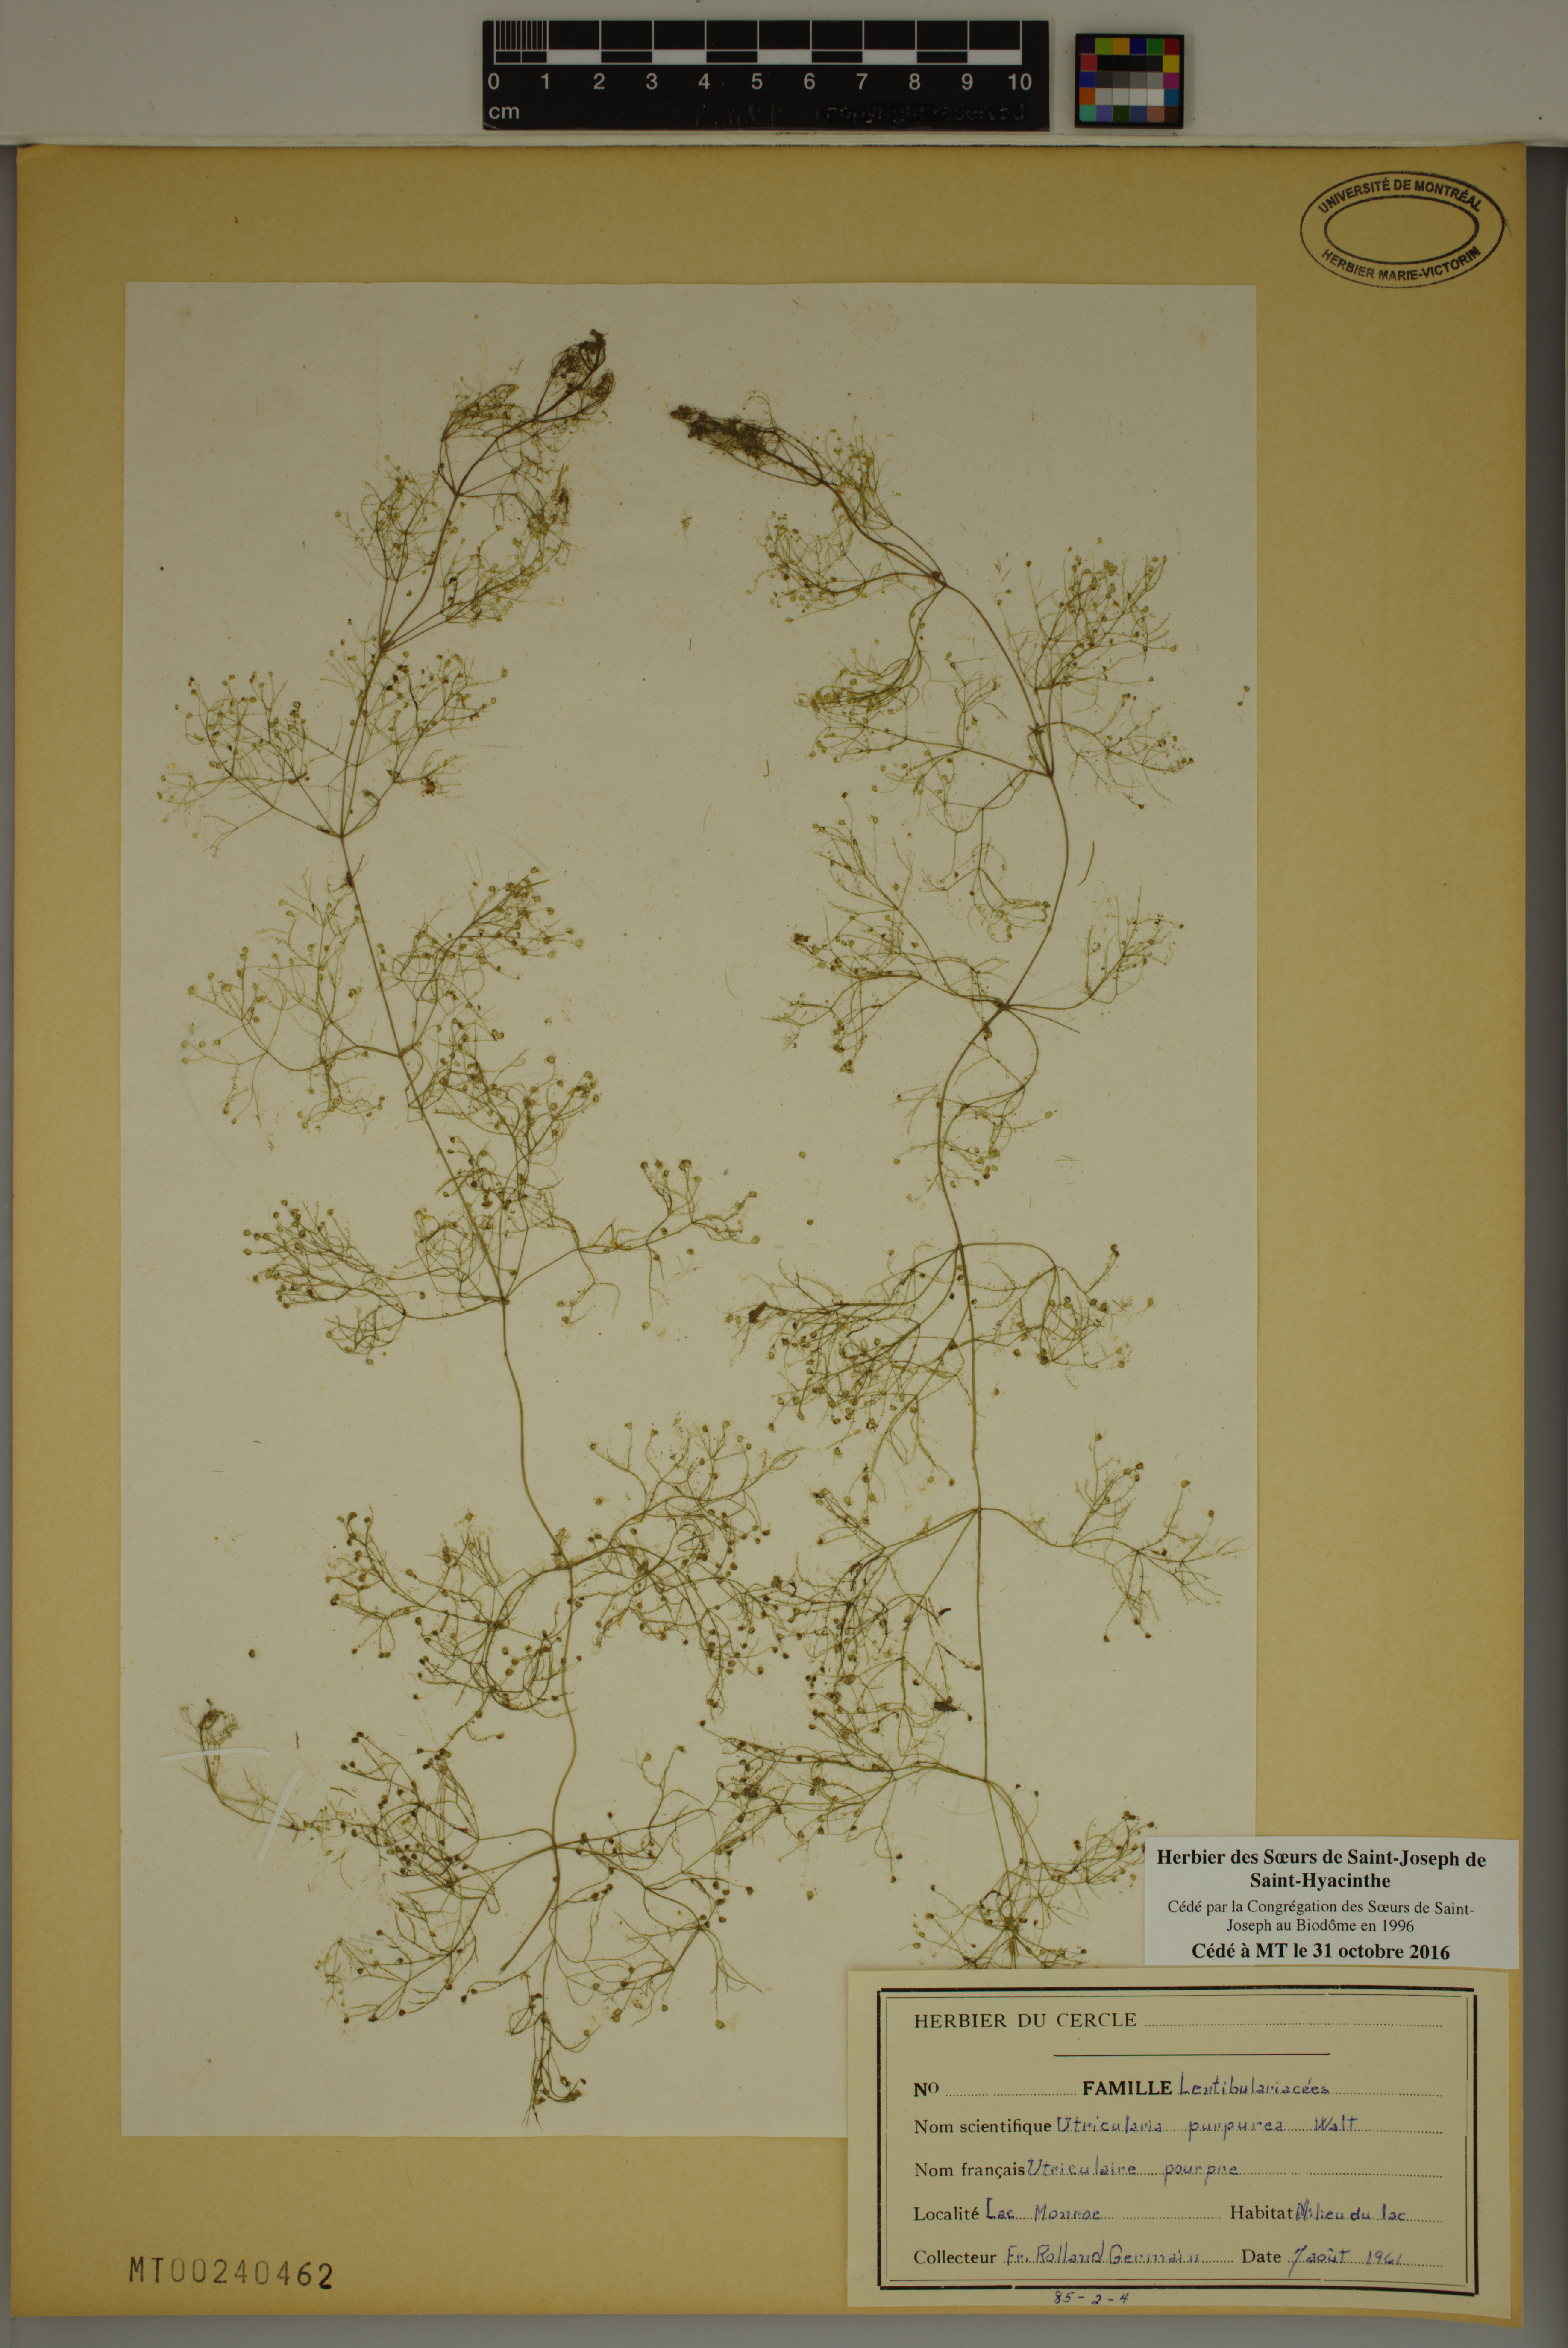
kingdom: Plantae
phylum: Tracheophyta
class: Magnoliopsida
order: Lamiales
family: Lentibulariaceae
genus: Utricularia
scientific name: Utricularia purpurea
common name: Eastern purple bladderwort
